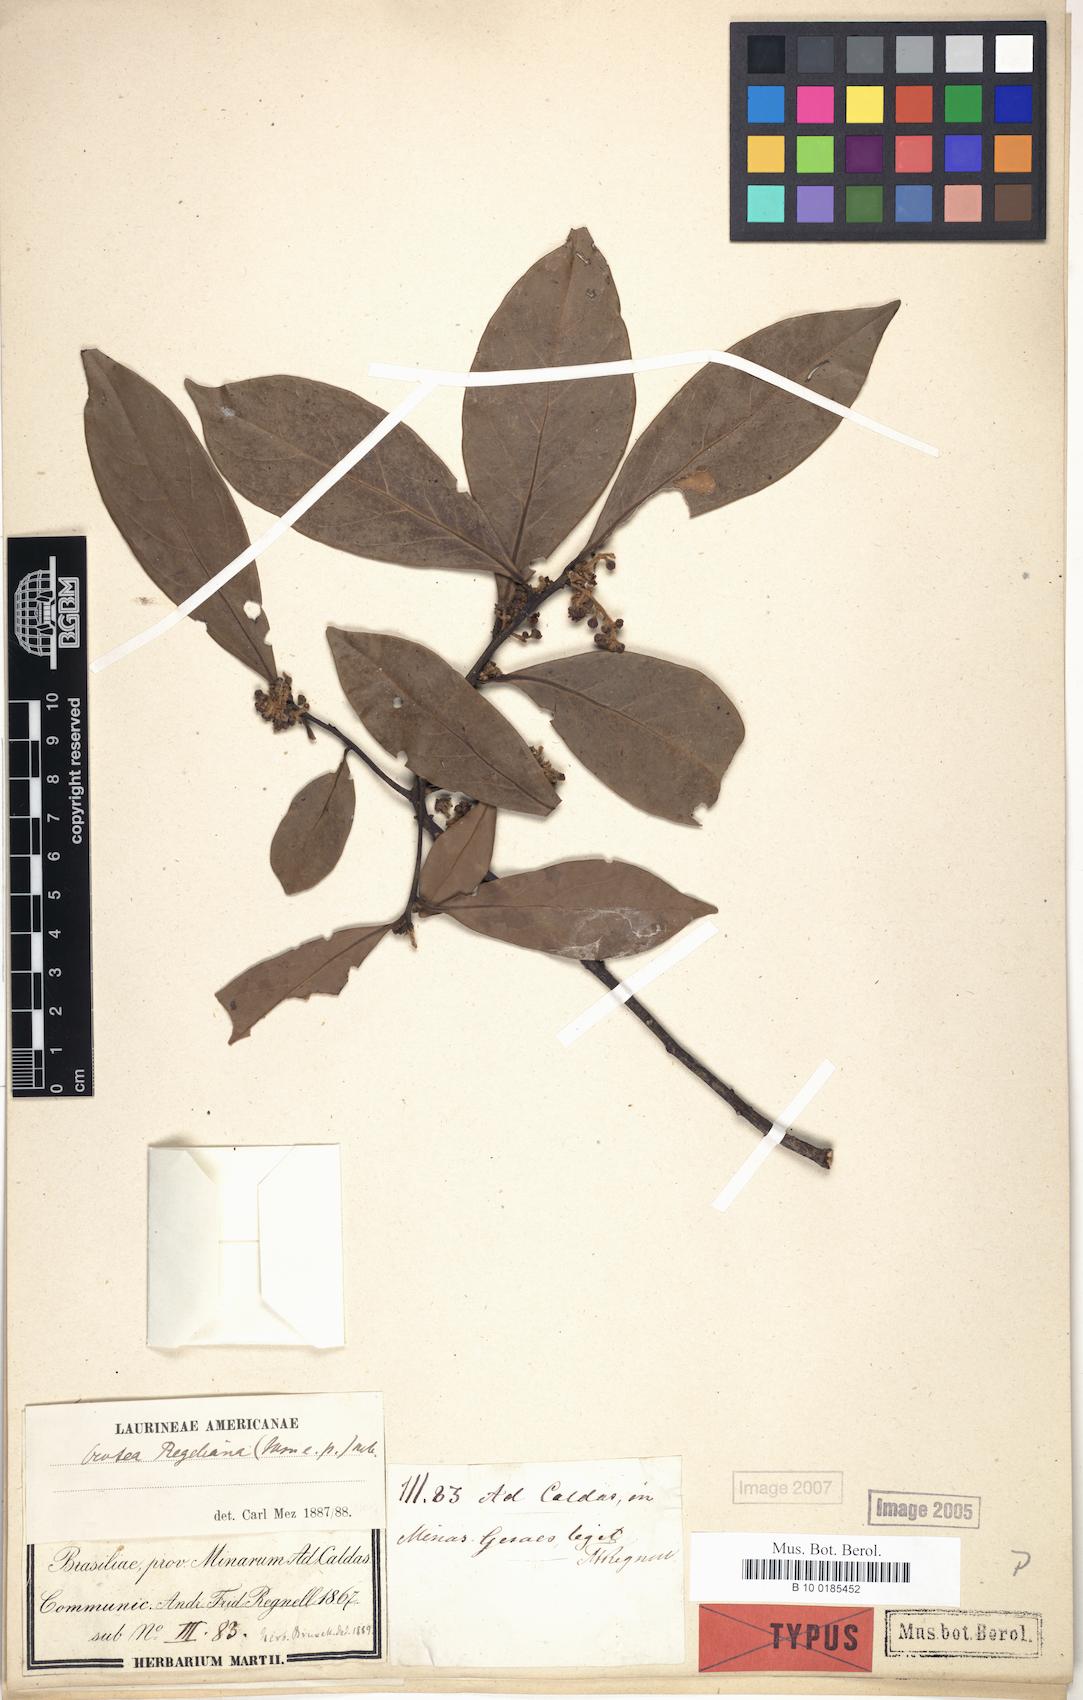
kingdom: Plantae
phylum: Tracheophyta
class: Magnoliopsida
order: Laurales
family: Lauraceae
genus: Ocotea
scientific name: Ocotea lancifolia
